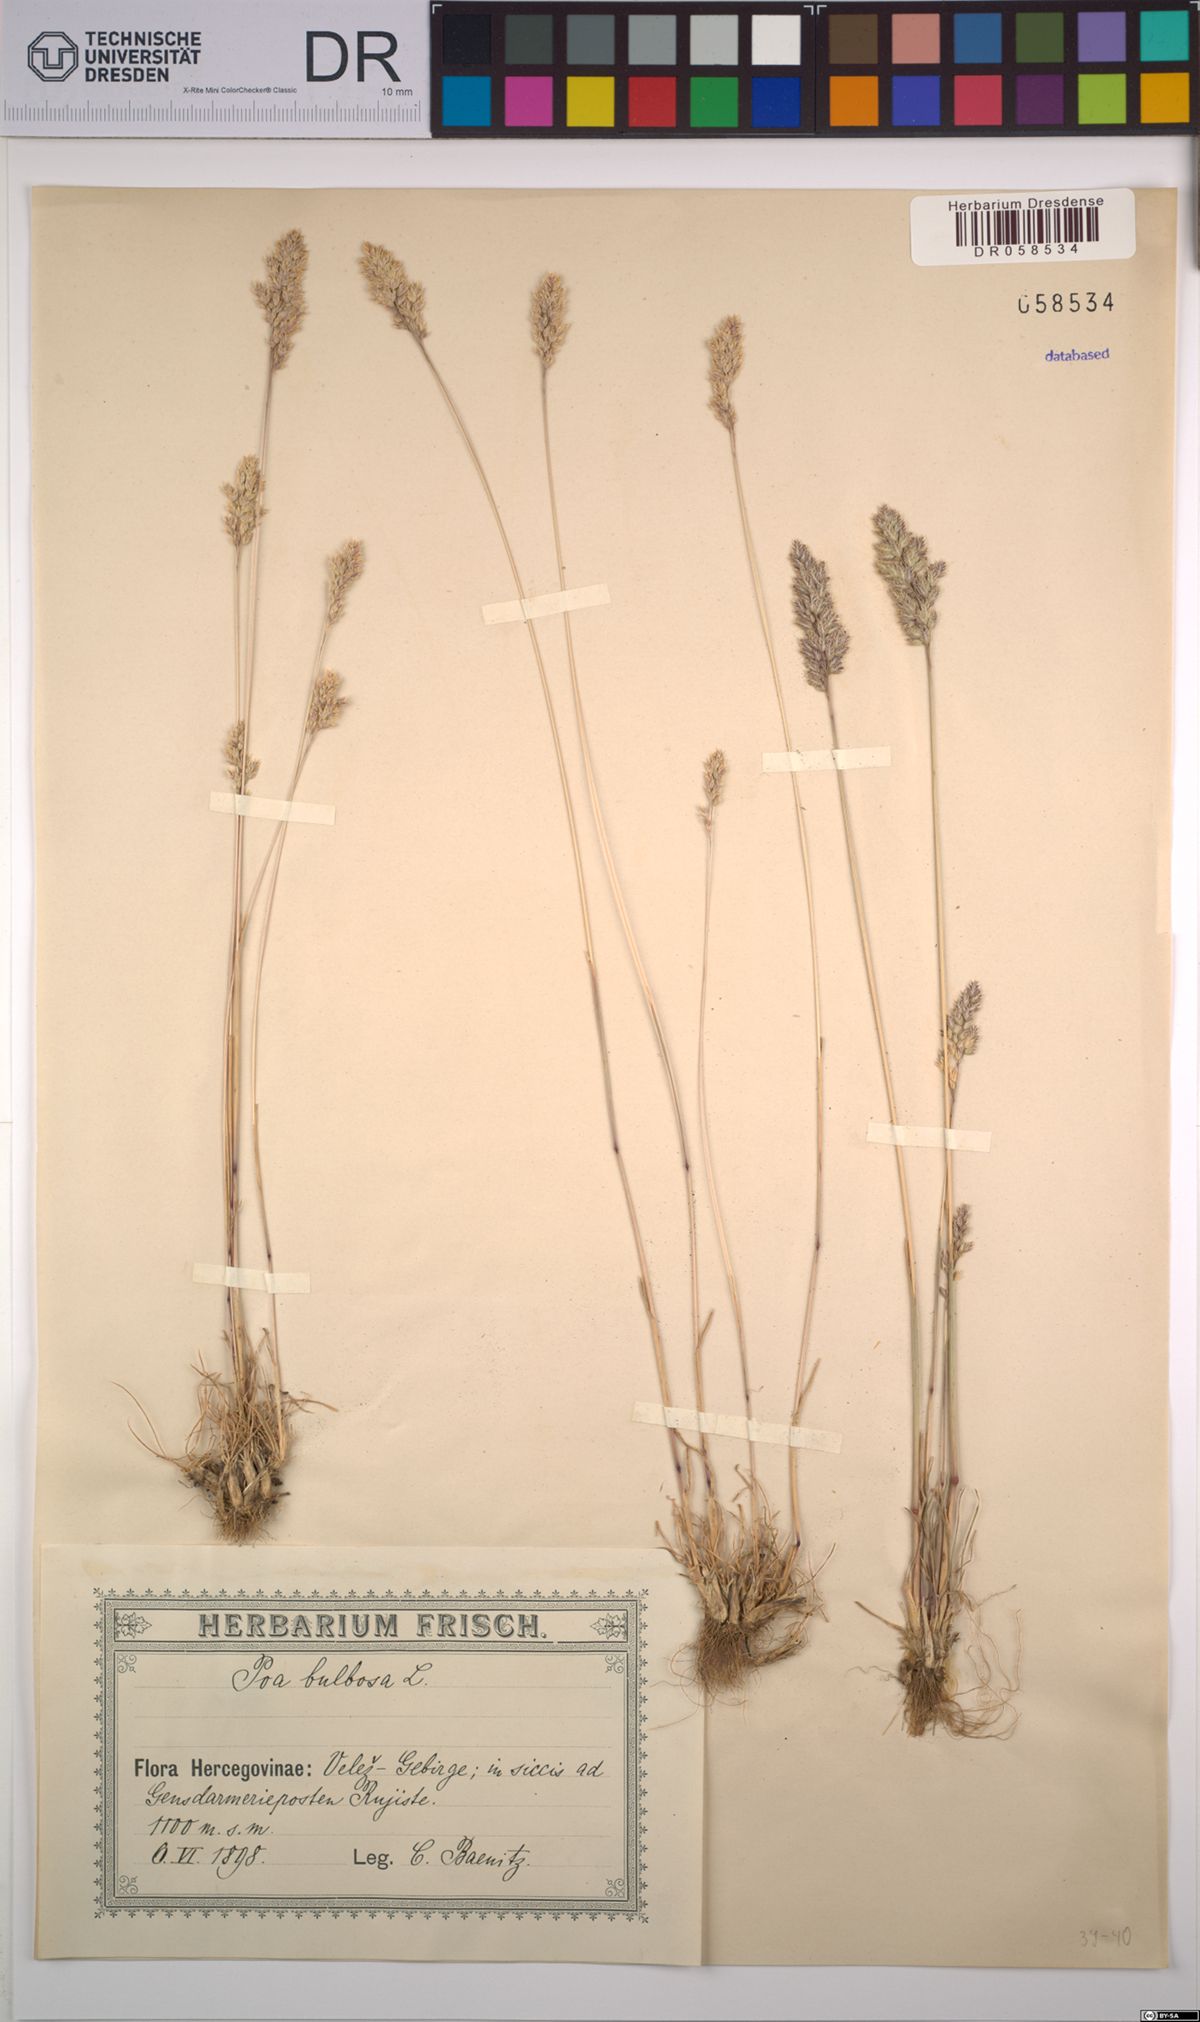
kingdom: Plantae
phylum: Tracheophyta
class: Liliopsida
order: Poales
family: Poaceae
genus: Poa
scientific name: Poa bulbosa
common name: Bulbous bluegrass
